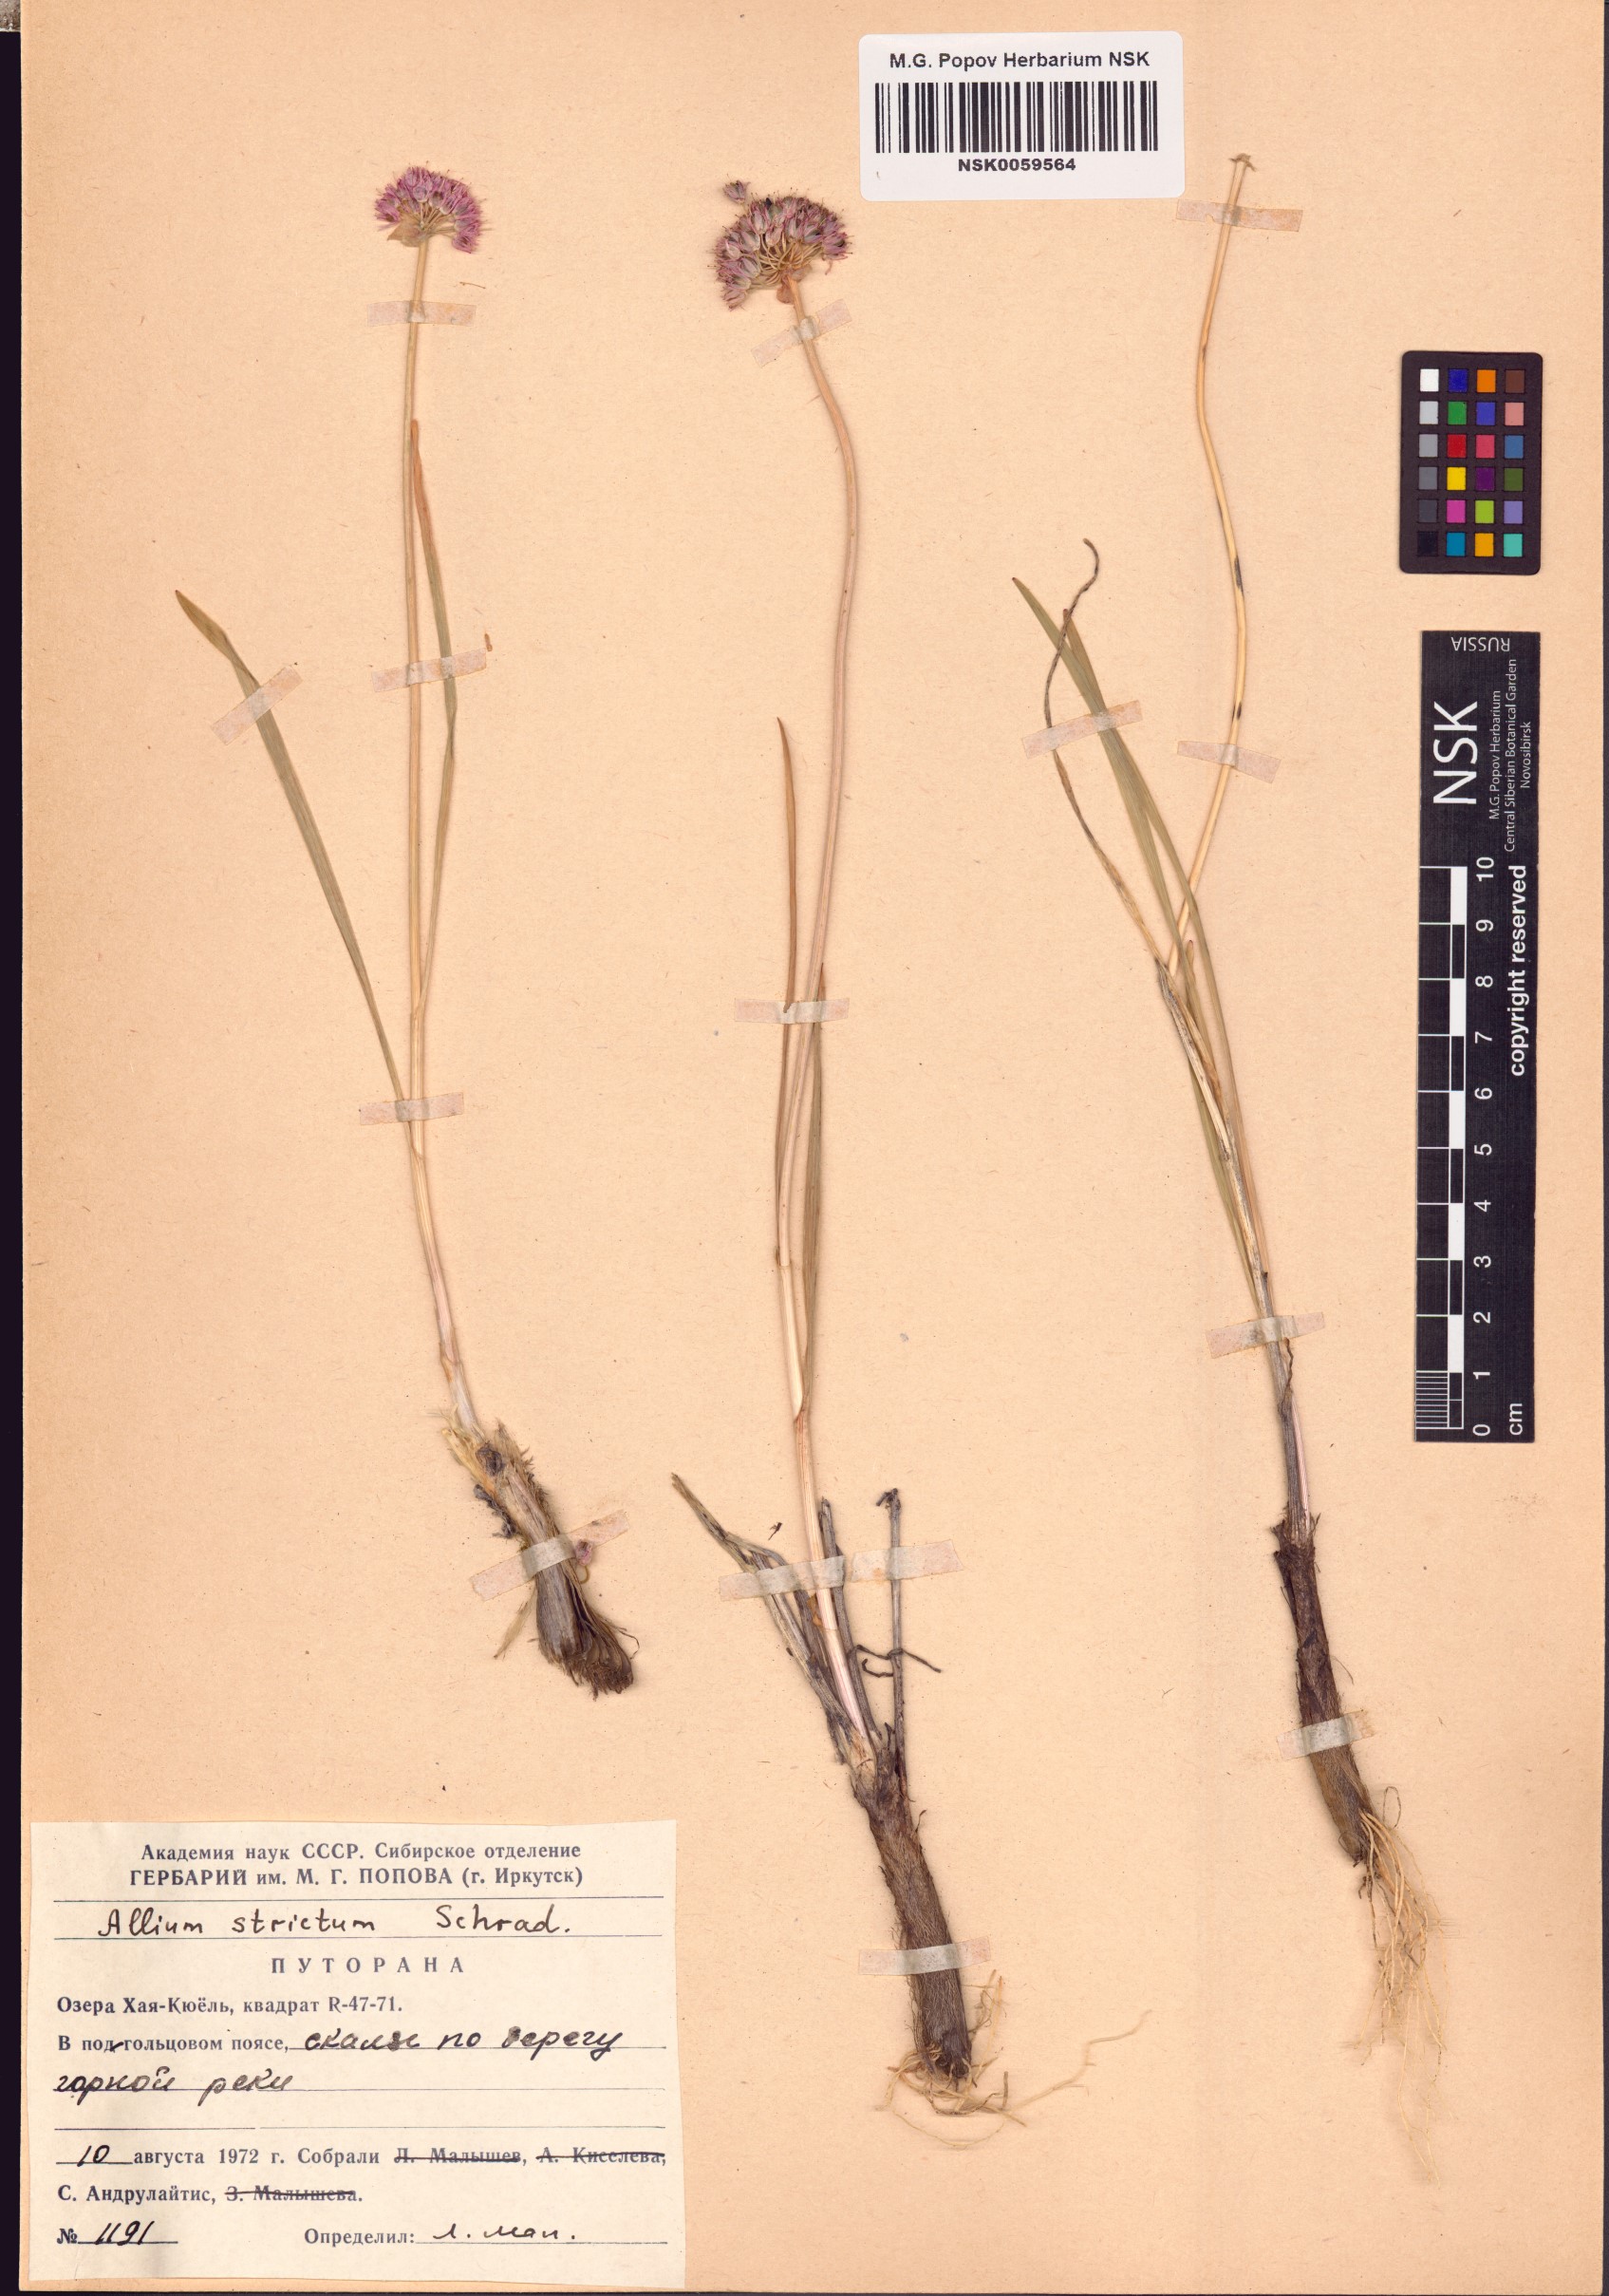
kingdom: Plantae
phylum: Tracheophyta
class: Liliopsida
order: Asparagales
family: Amaryllidaceae
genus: Allium
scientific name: Allium strictum
